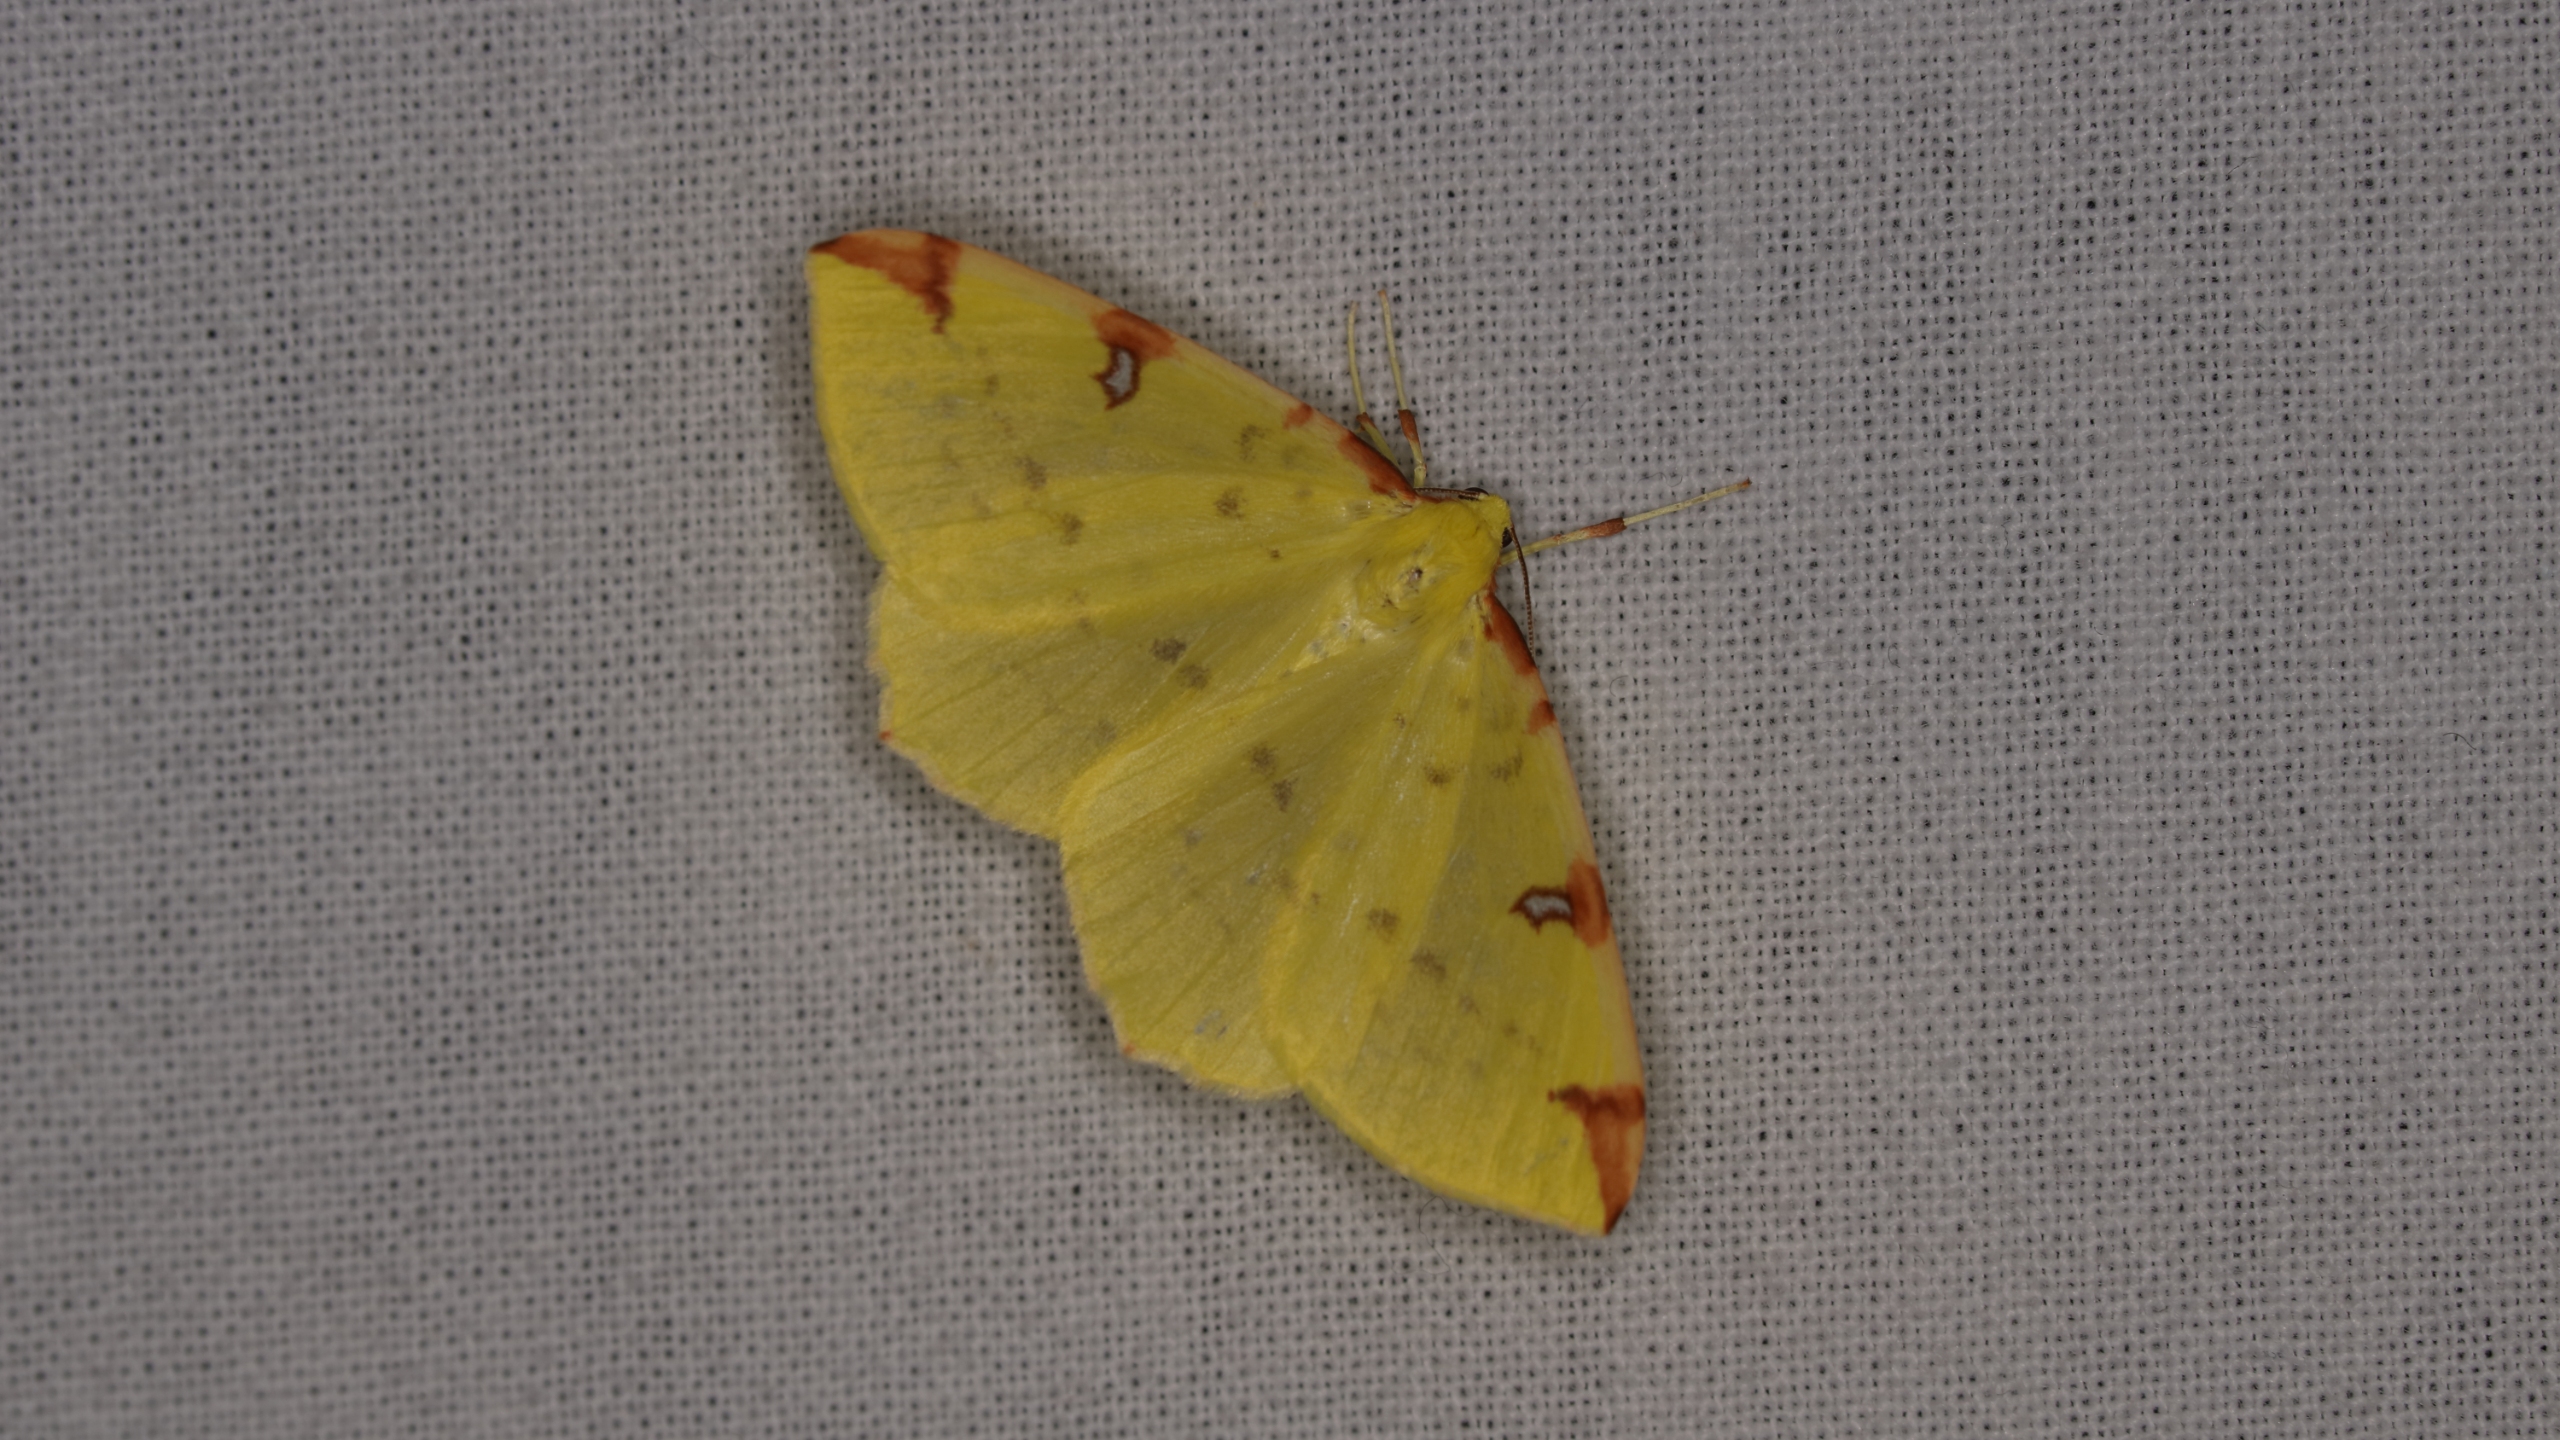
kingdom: Animalia
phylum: Arthropoda
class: Insecta
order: Lepidoptera
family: Geometridae
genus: Opisthograptis
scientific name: Opisthograptis luteolata
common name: Citronmåler
